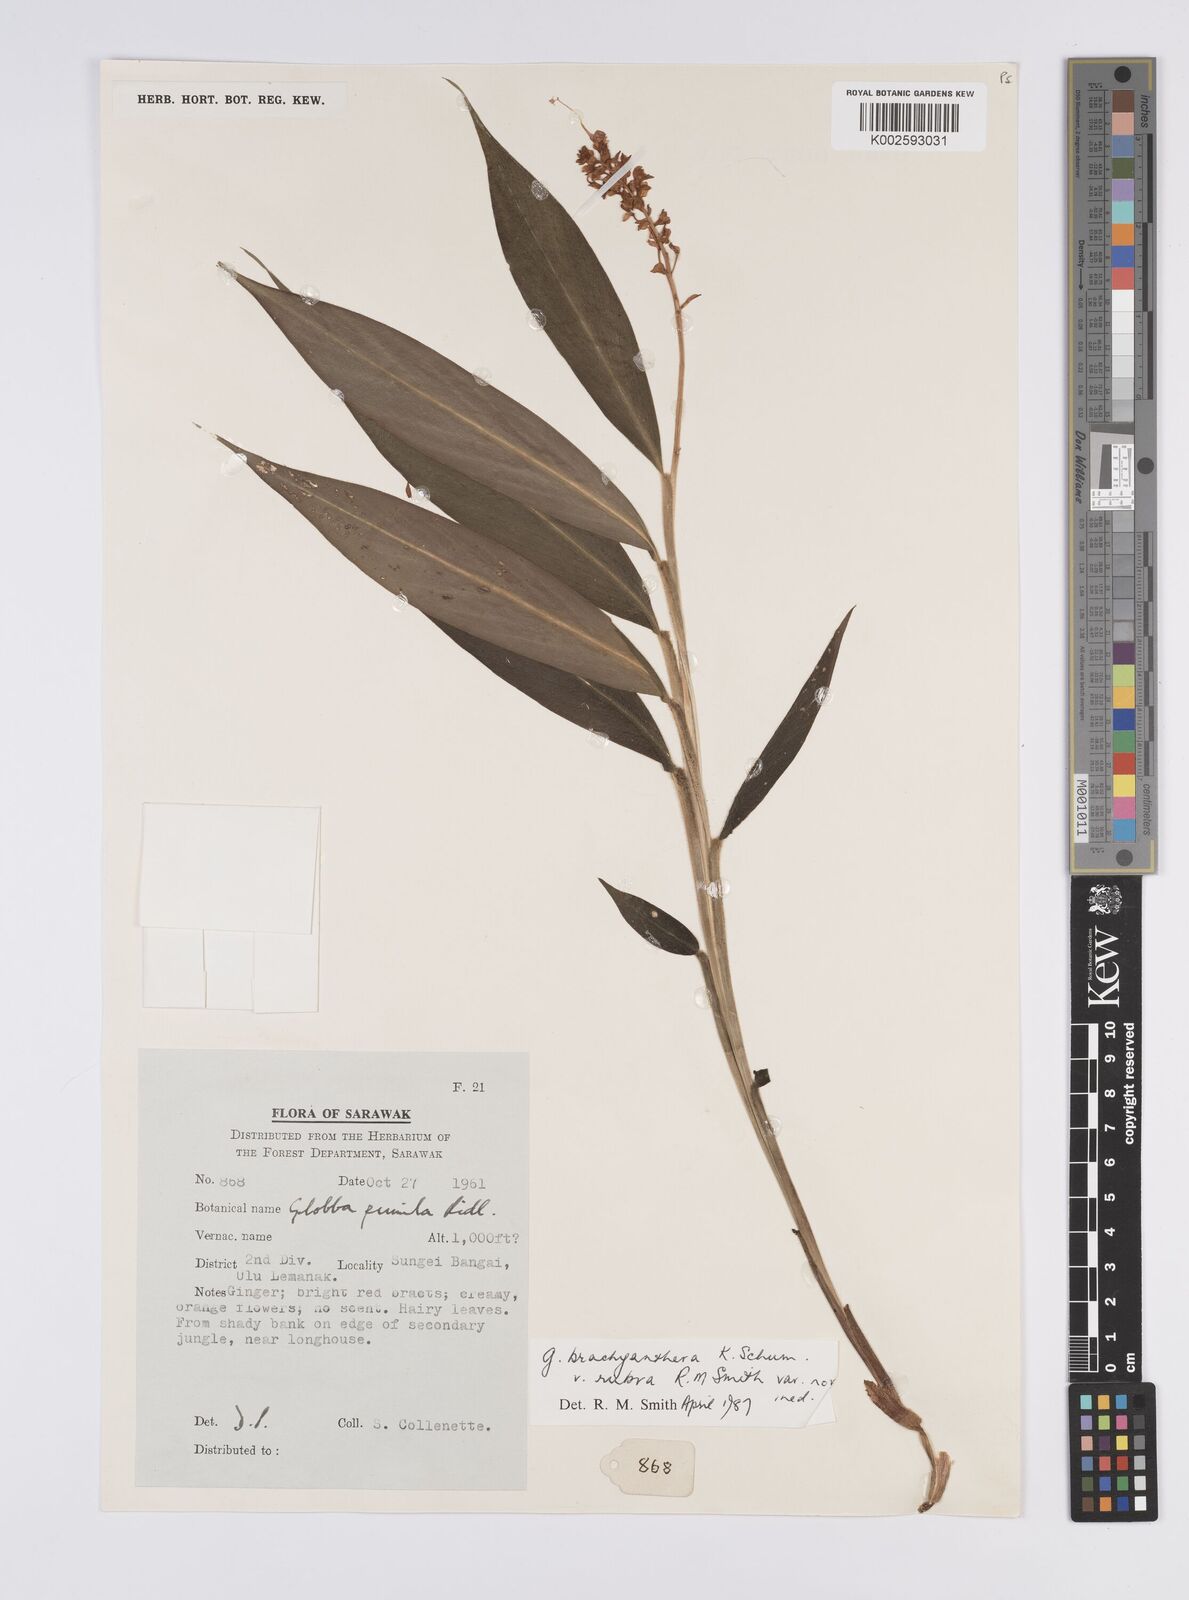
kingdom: Plantae
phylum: Tracheophyta
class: Liliopsida
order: Zingiberales
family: Zingiberaceae
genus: Globba
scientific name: Globba brachyanthera
